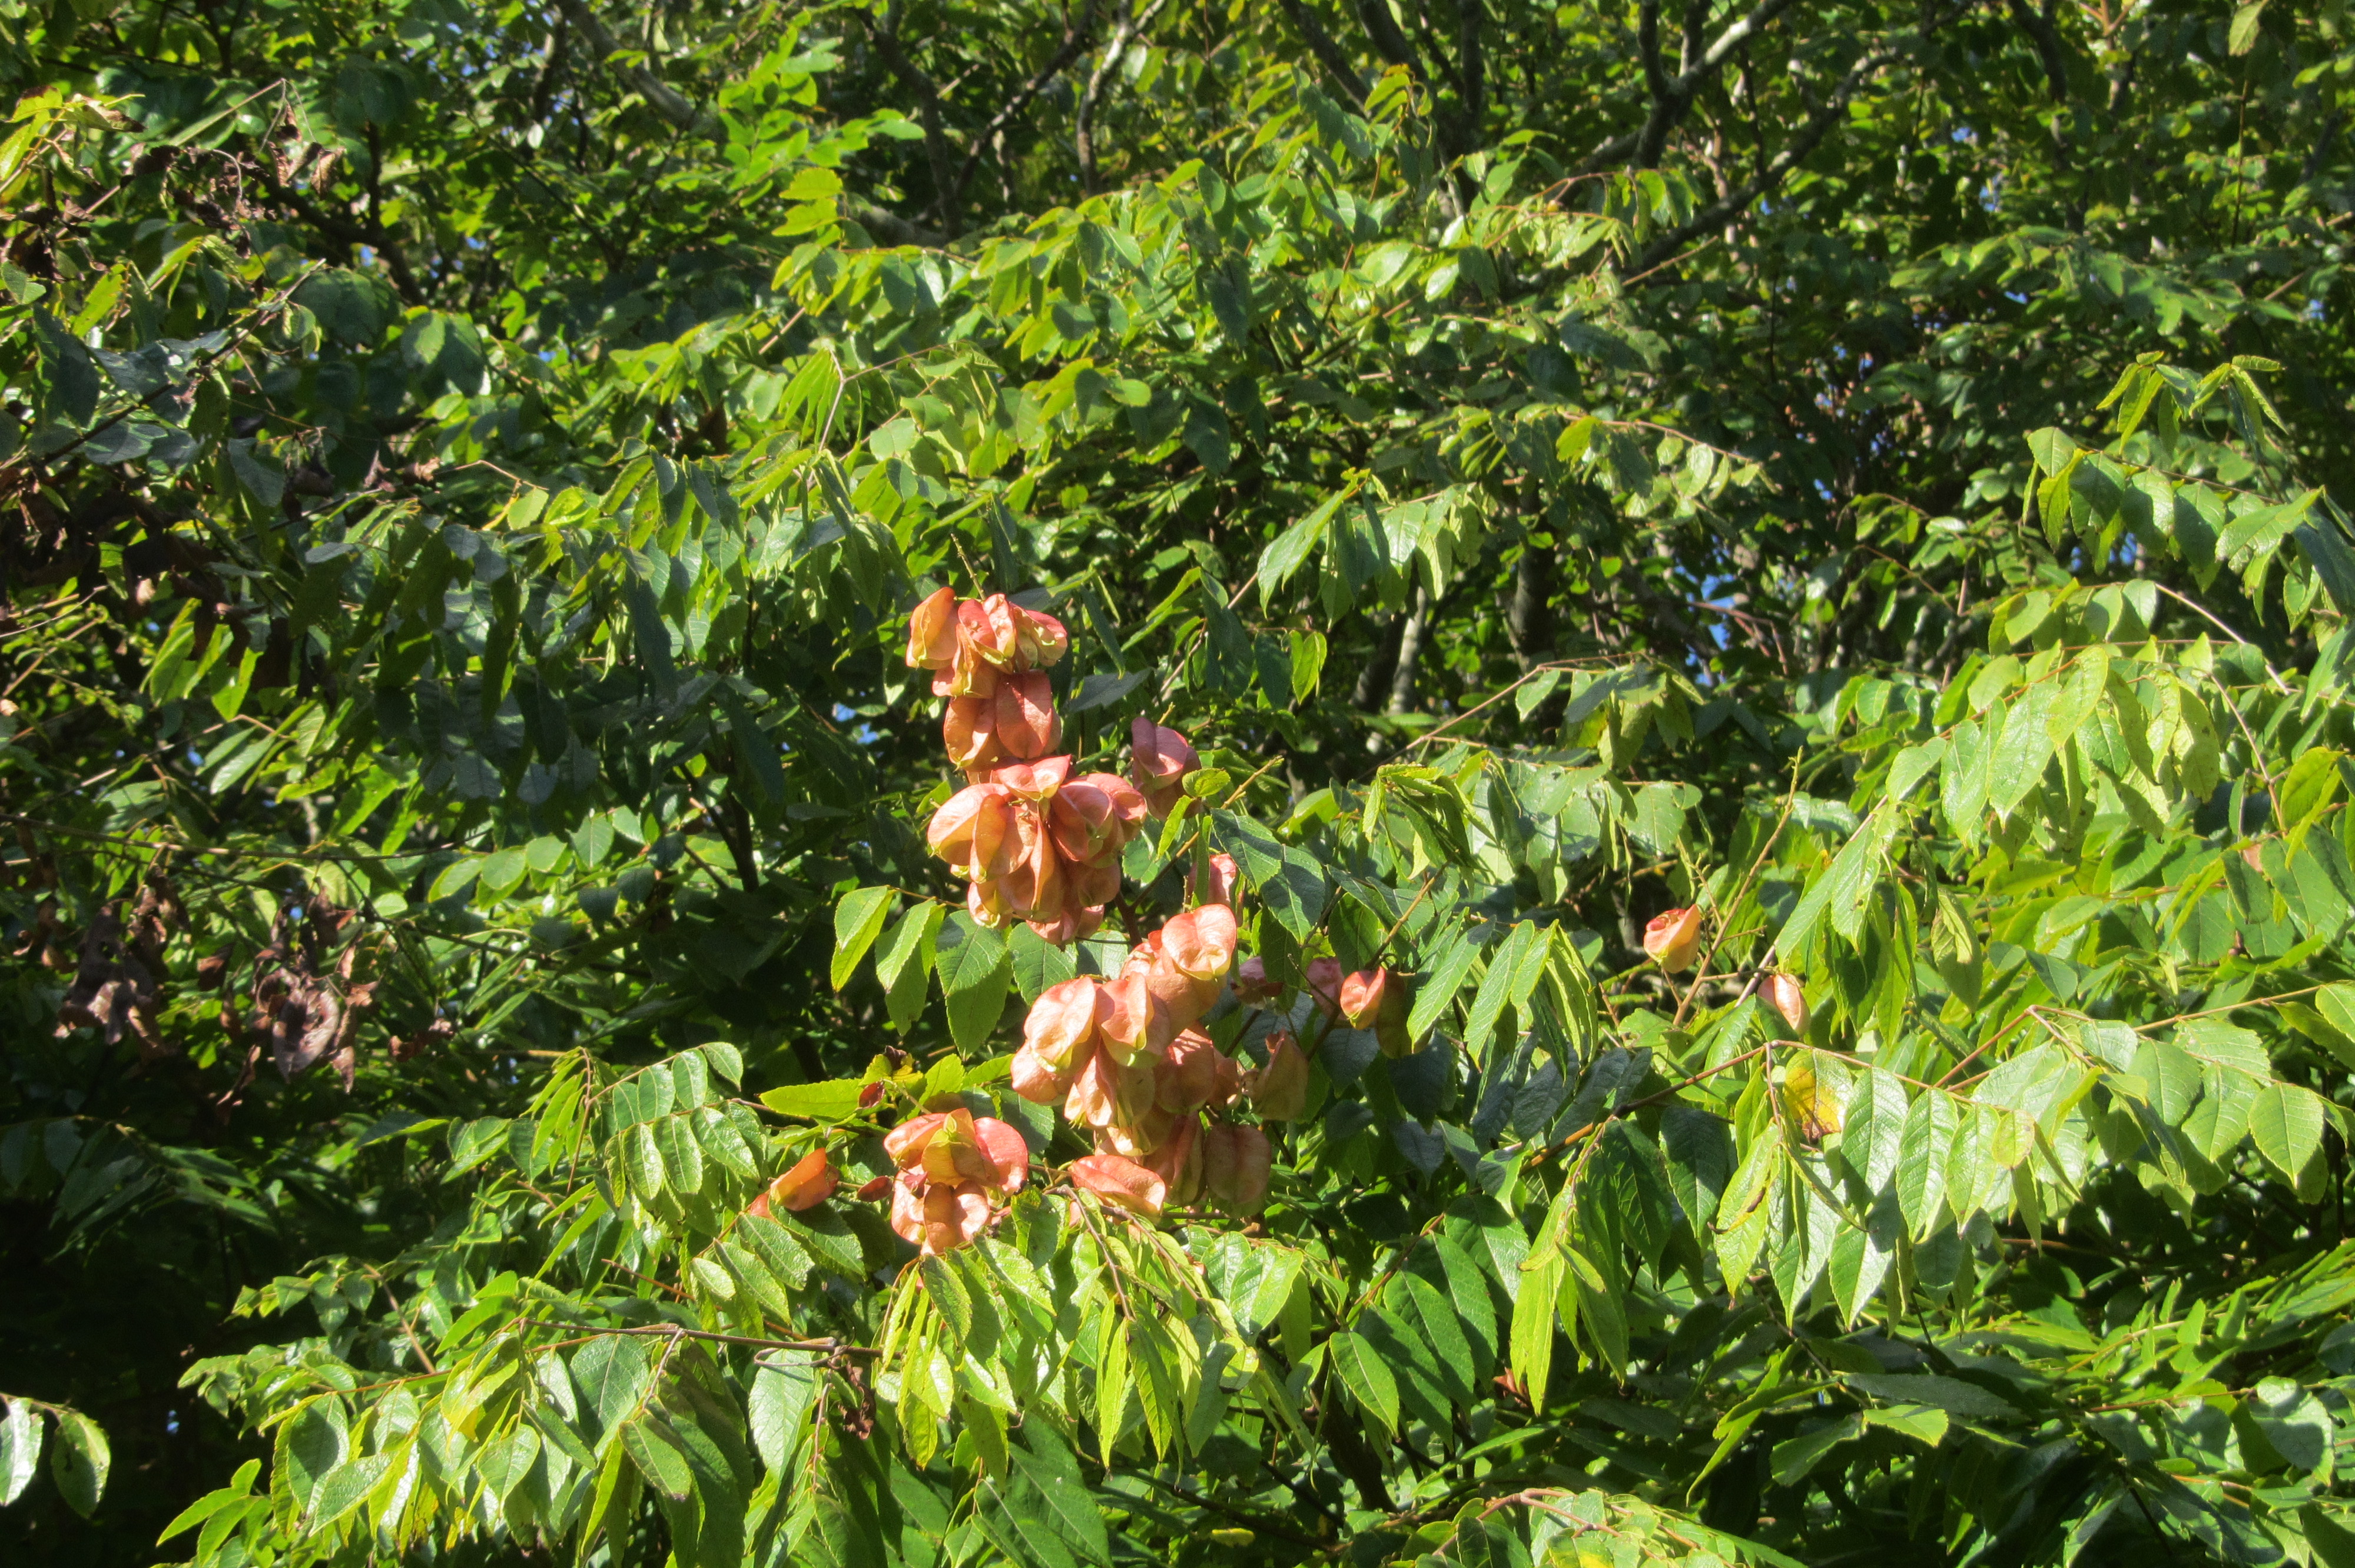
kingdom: Plantae
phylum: Tracheophyta
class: Magnoliopsida
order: Sapindales
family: Sapindaceae
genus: Koelreuteria
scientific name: Koelreuteria paniculata
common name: Pride-of-india
